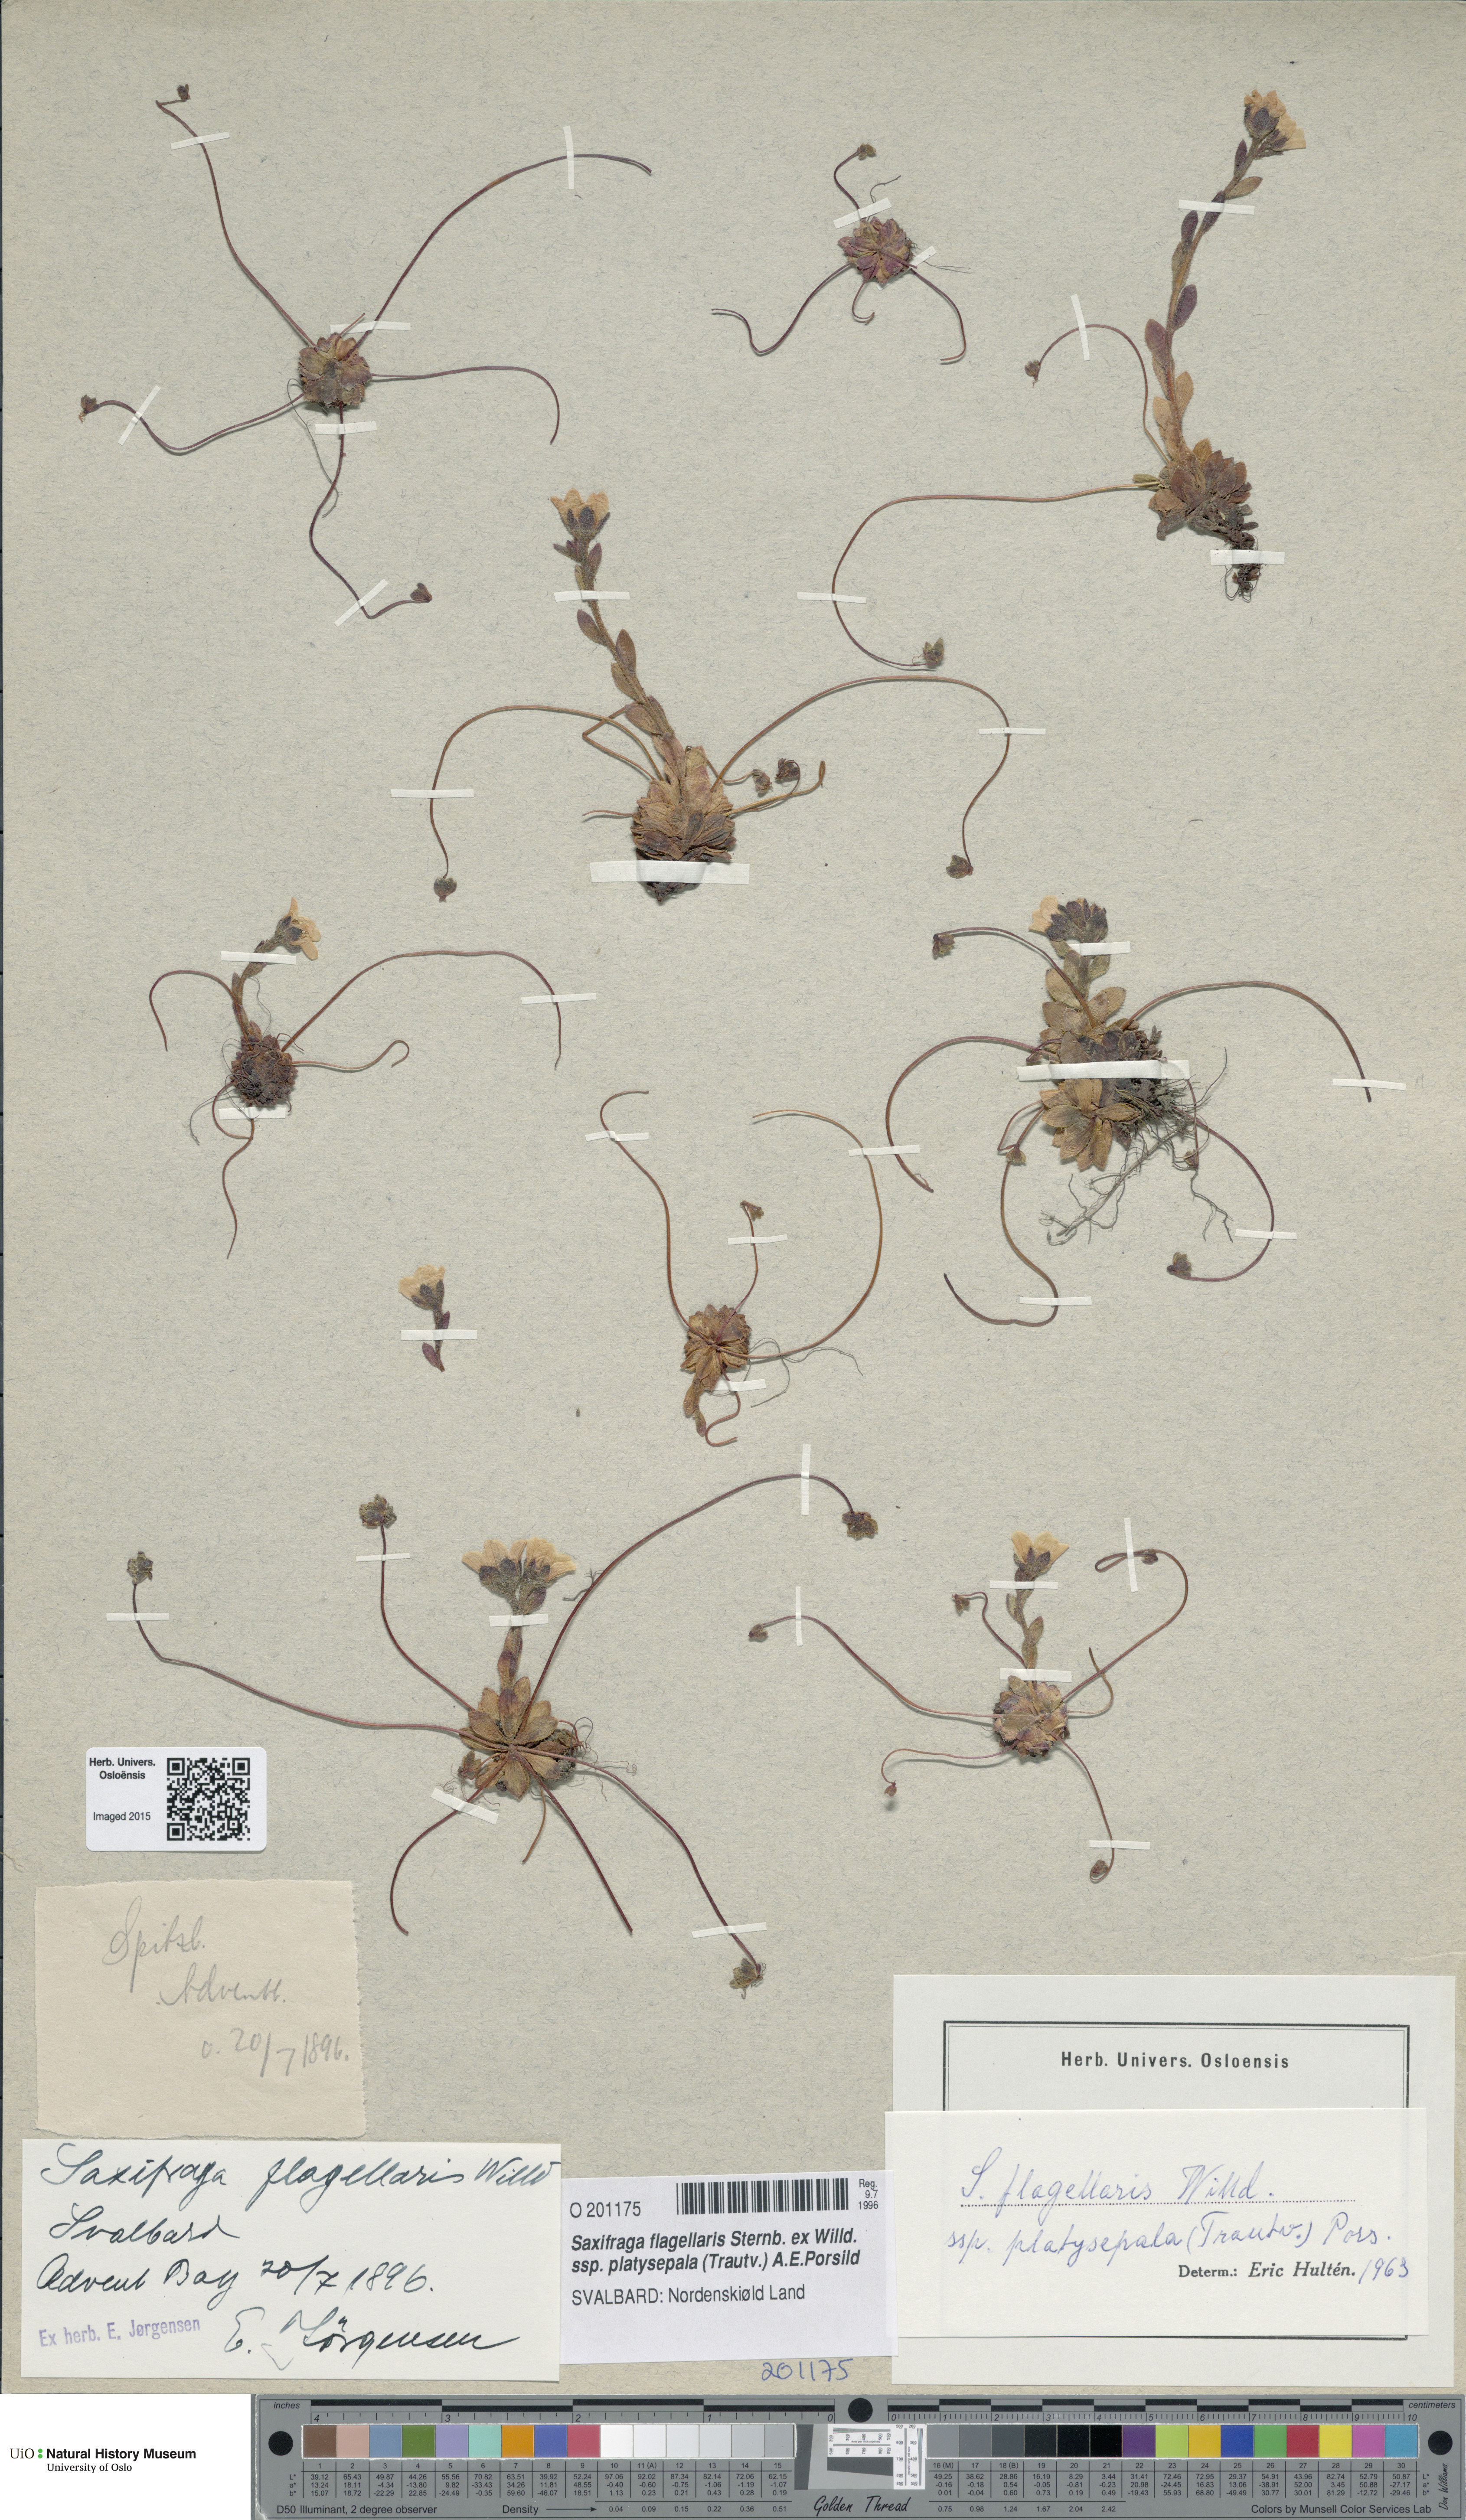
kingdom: Plantae
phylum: Tracheophyta
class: Magnoliopsida
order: Saxifragales
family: Saxifragaceae
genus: Saxifraga
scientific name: Saxifraga platysepala
